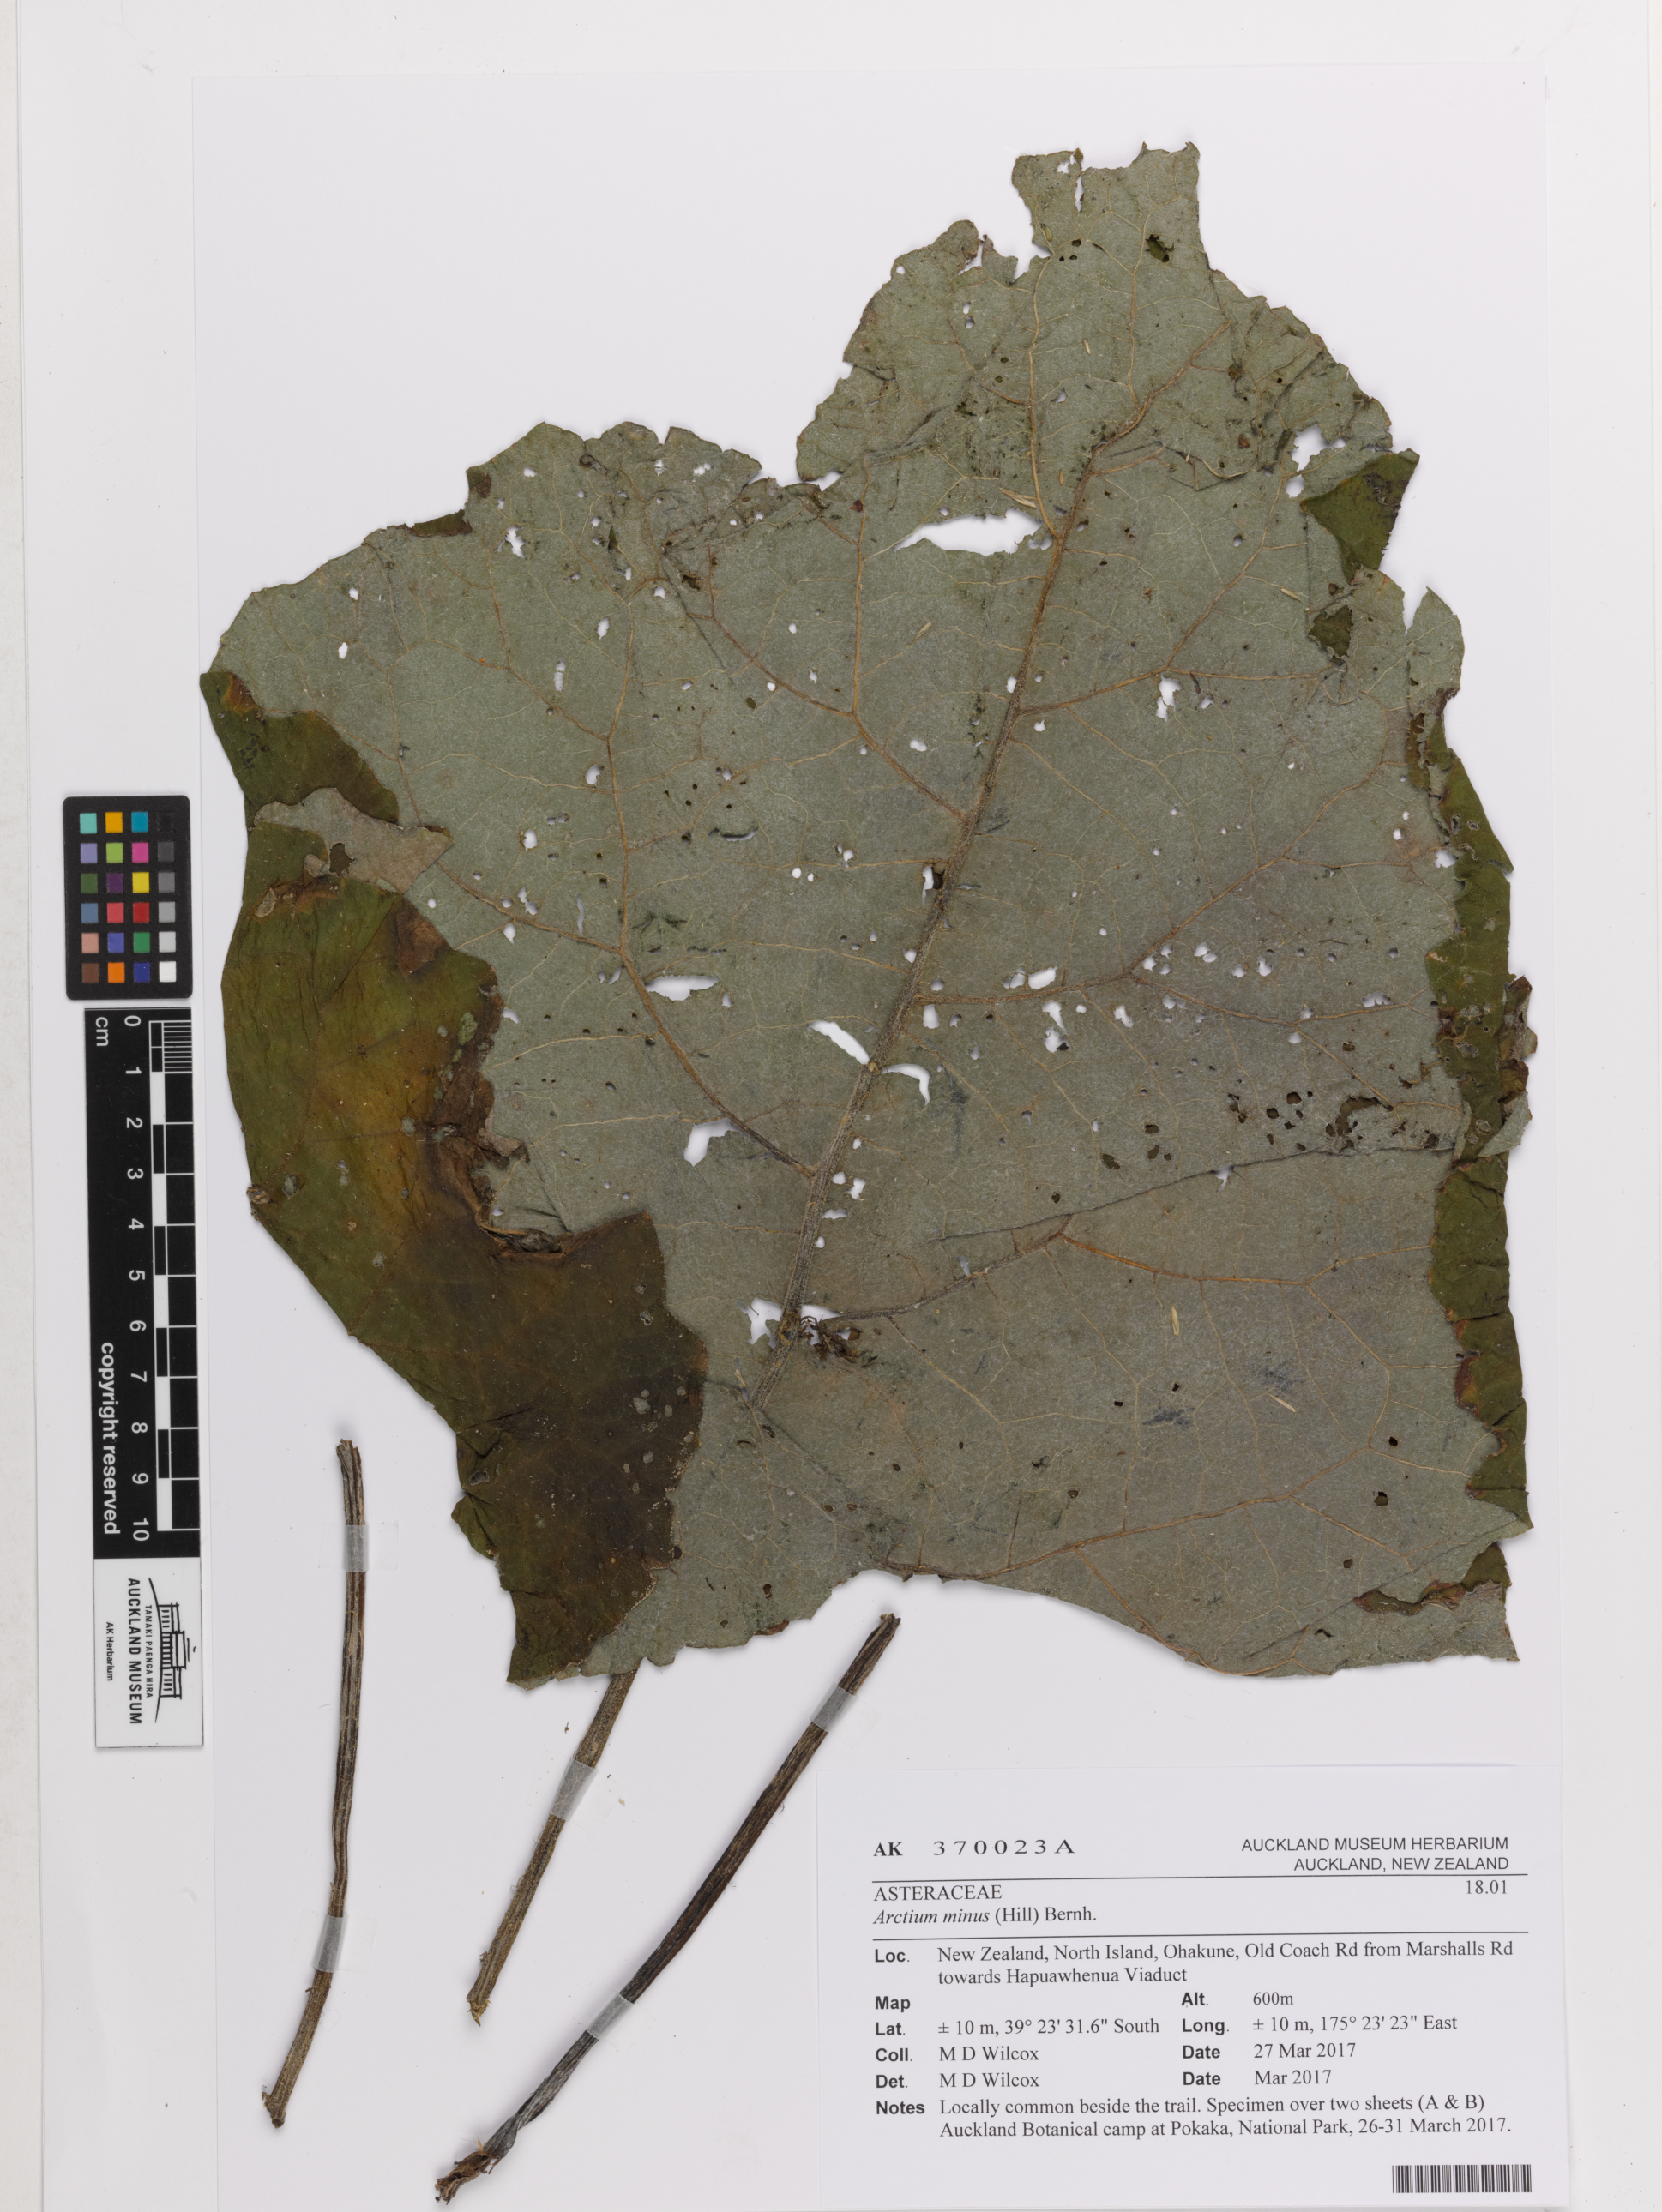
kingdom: Plantae
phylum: Tracheophyta
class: Magnoliopsida
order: Asterales
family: Asteraceae
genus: Arctium
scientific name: Arctium minus
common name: Lesser burdock
